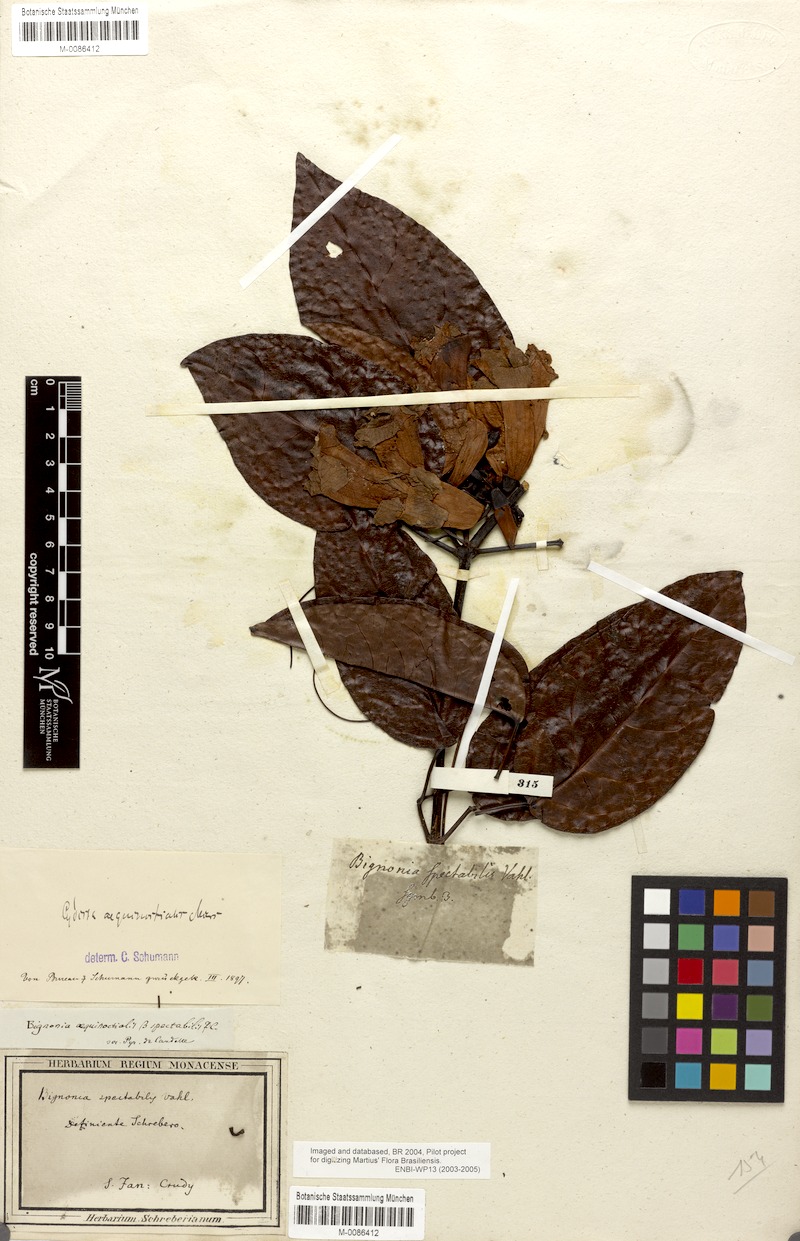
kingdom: Plantae
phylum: Tracheophyta
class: Magnoliopsida
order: Lamiales
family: Bignoniaceae
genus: Bignonia
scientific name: Bignonia aequinoctialis
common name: Garlicvine
